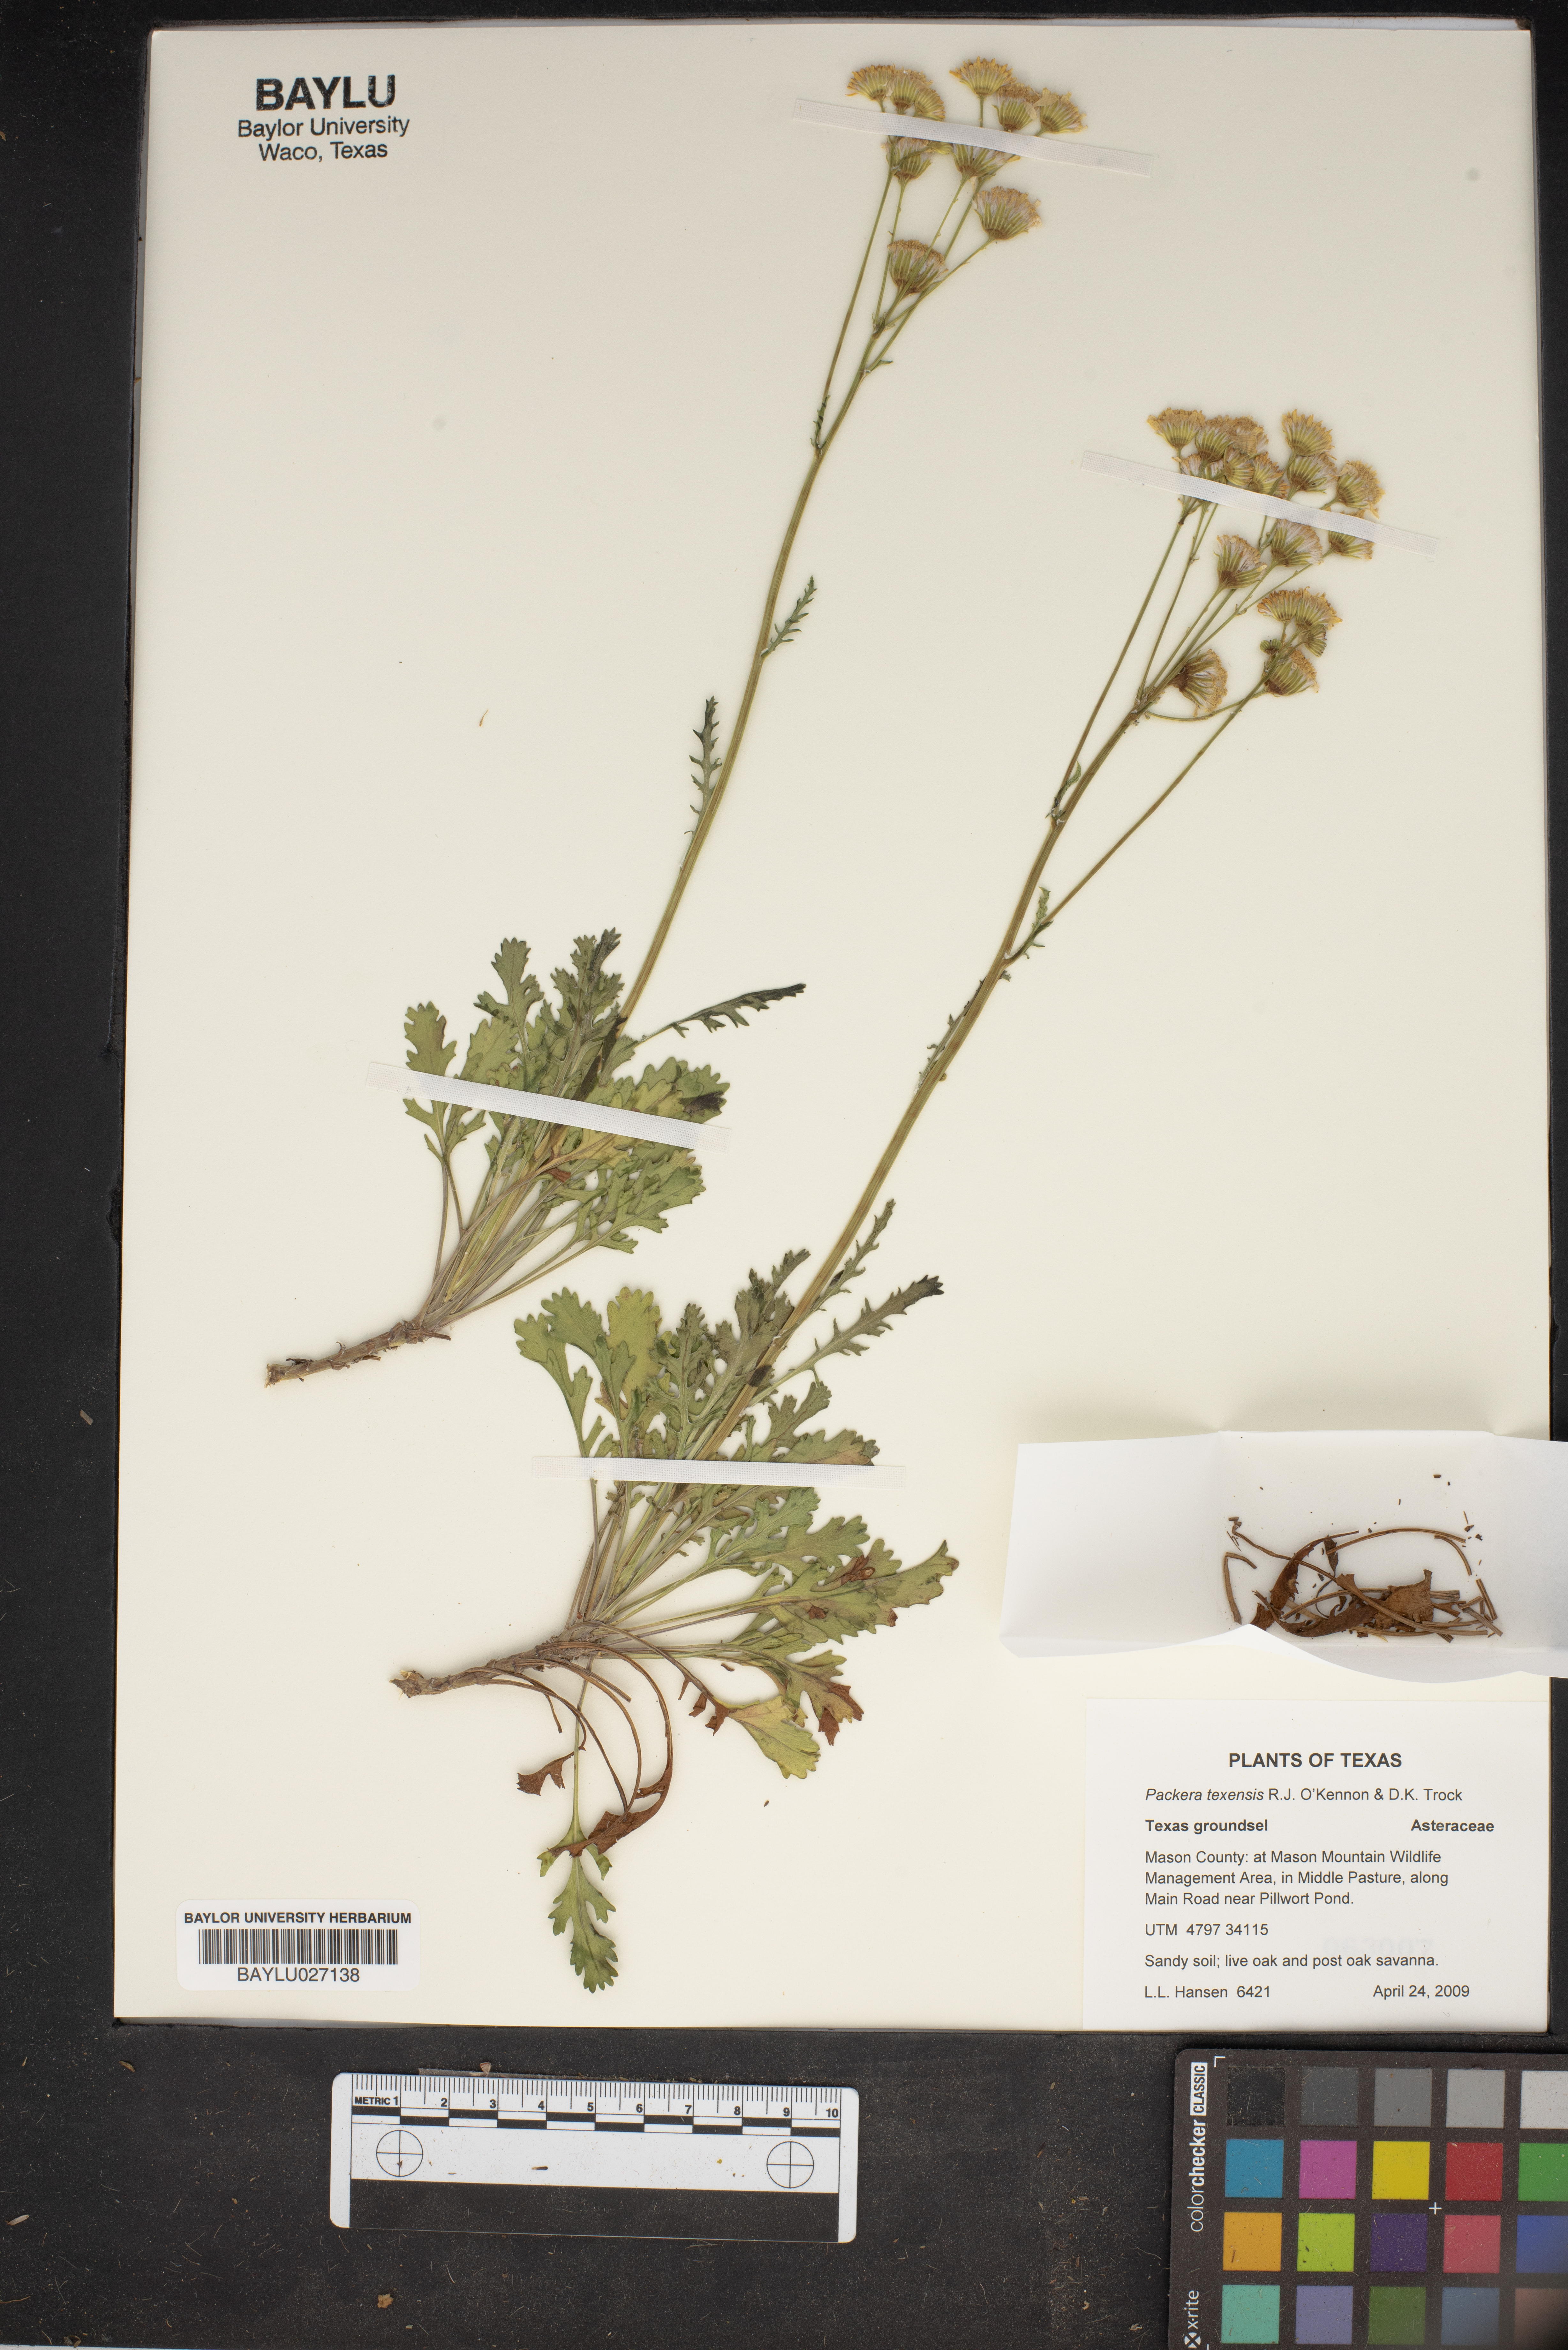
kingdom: Plantae
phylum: Tracheophyta
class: Magnoliopsida
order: Asterales
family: Asteraceae
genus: Packera
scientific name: Packera texensis
